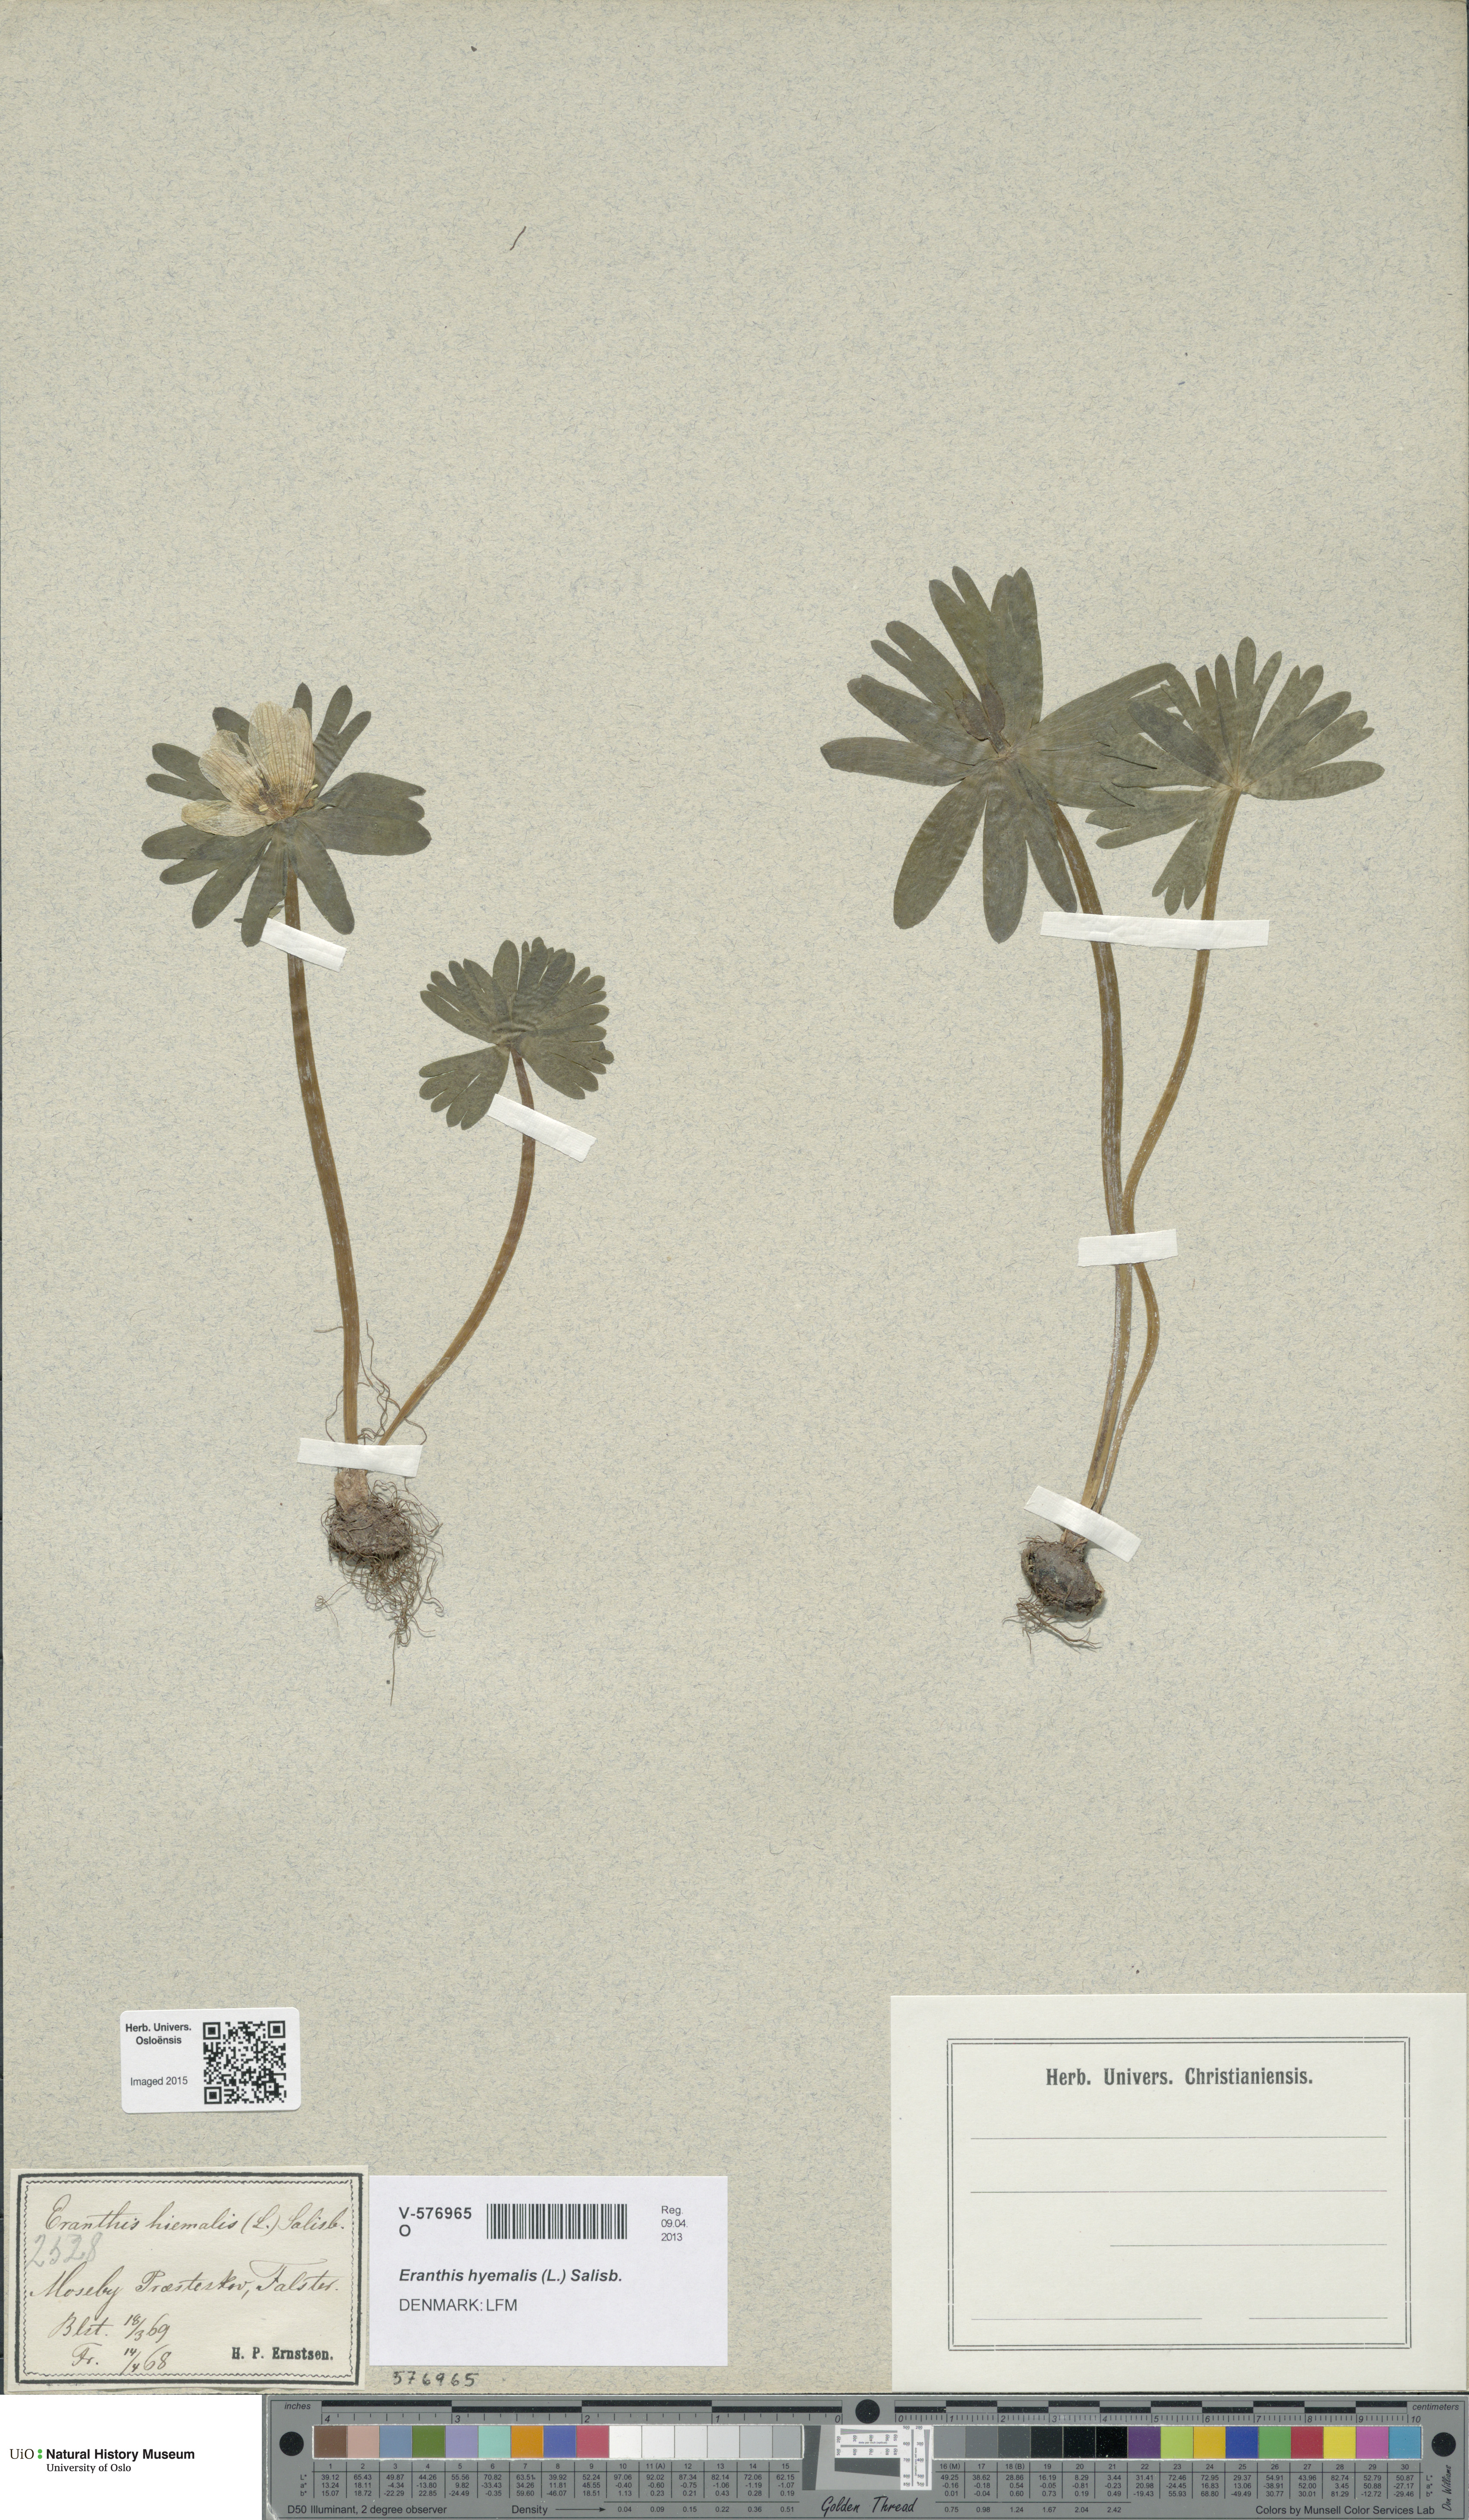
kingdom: Plantae
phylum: Tracheophyta
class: Magnoliopsida
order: Ranunculales
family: Ranunculaceae
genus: Eranthis
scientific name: Eranthis hyemalis
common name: Winter aconite
